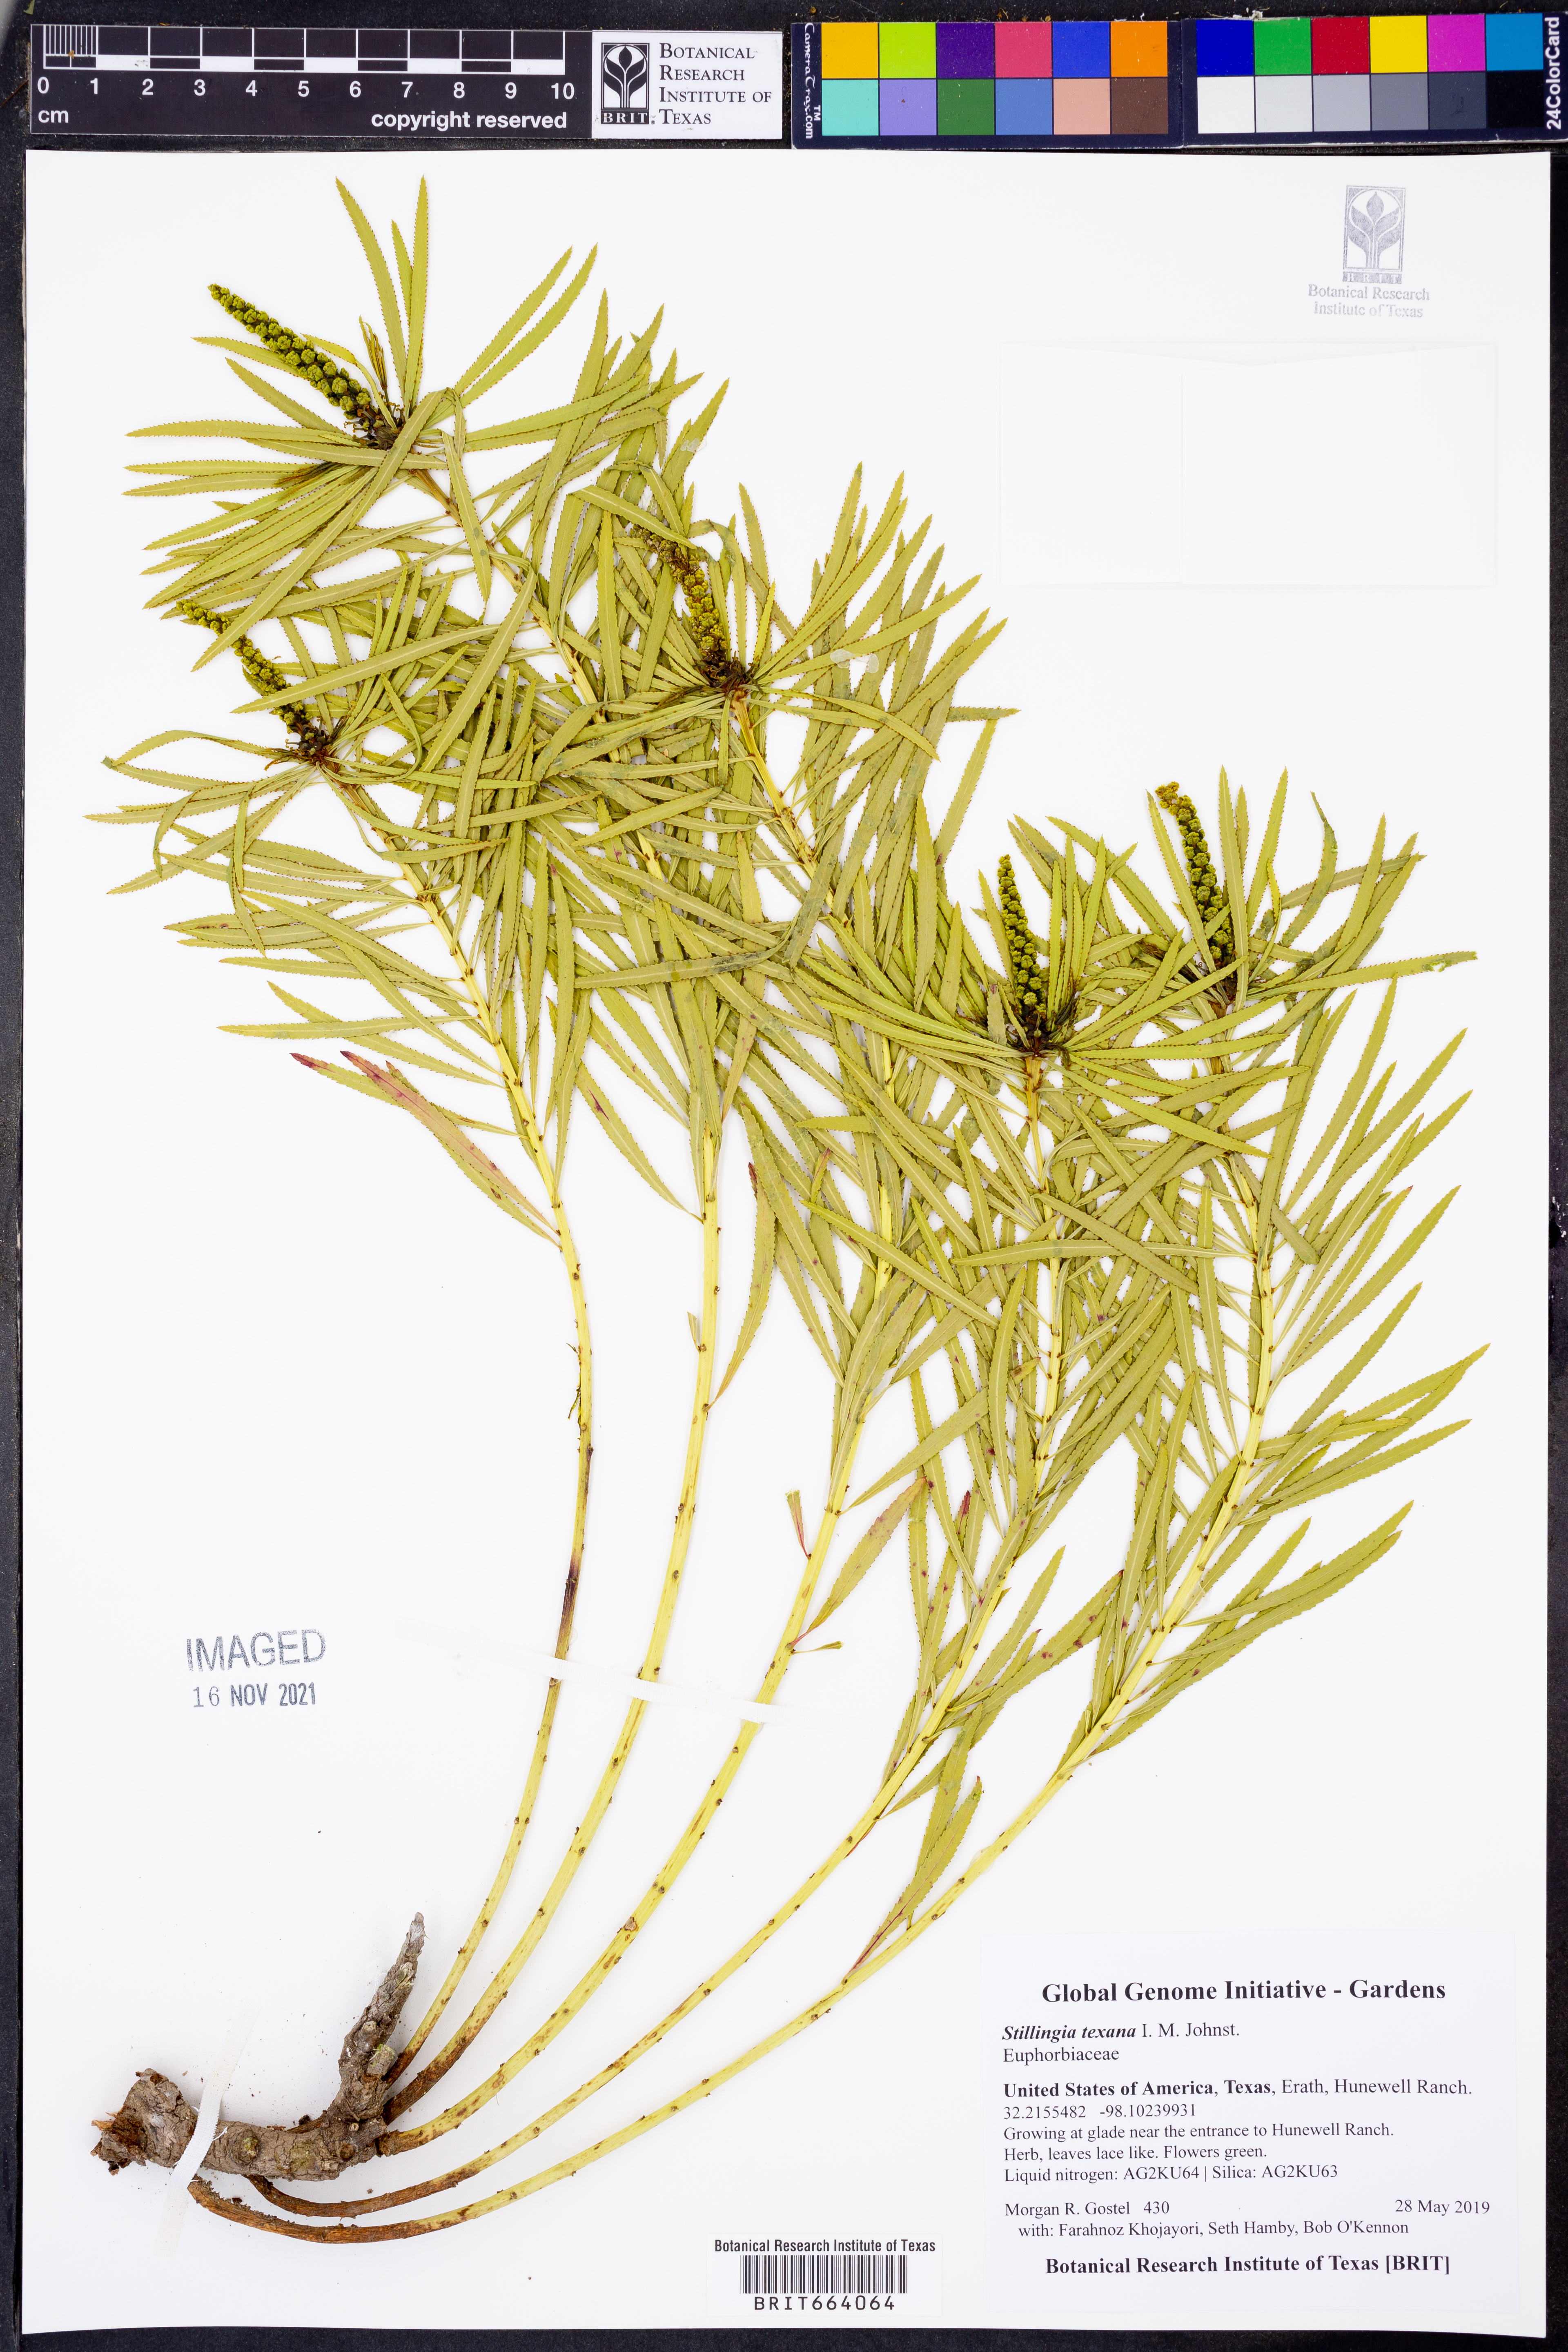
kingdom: Plantae
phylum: Tracheophyta
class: Magnoliopsida
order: Malpighiales
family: Euphorbiaceae
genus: Stillingia
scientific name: Stillingia texana
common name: Texas stillingia
